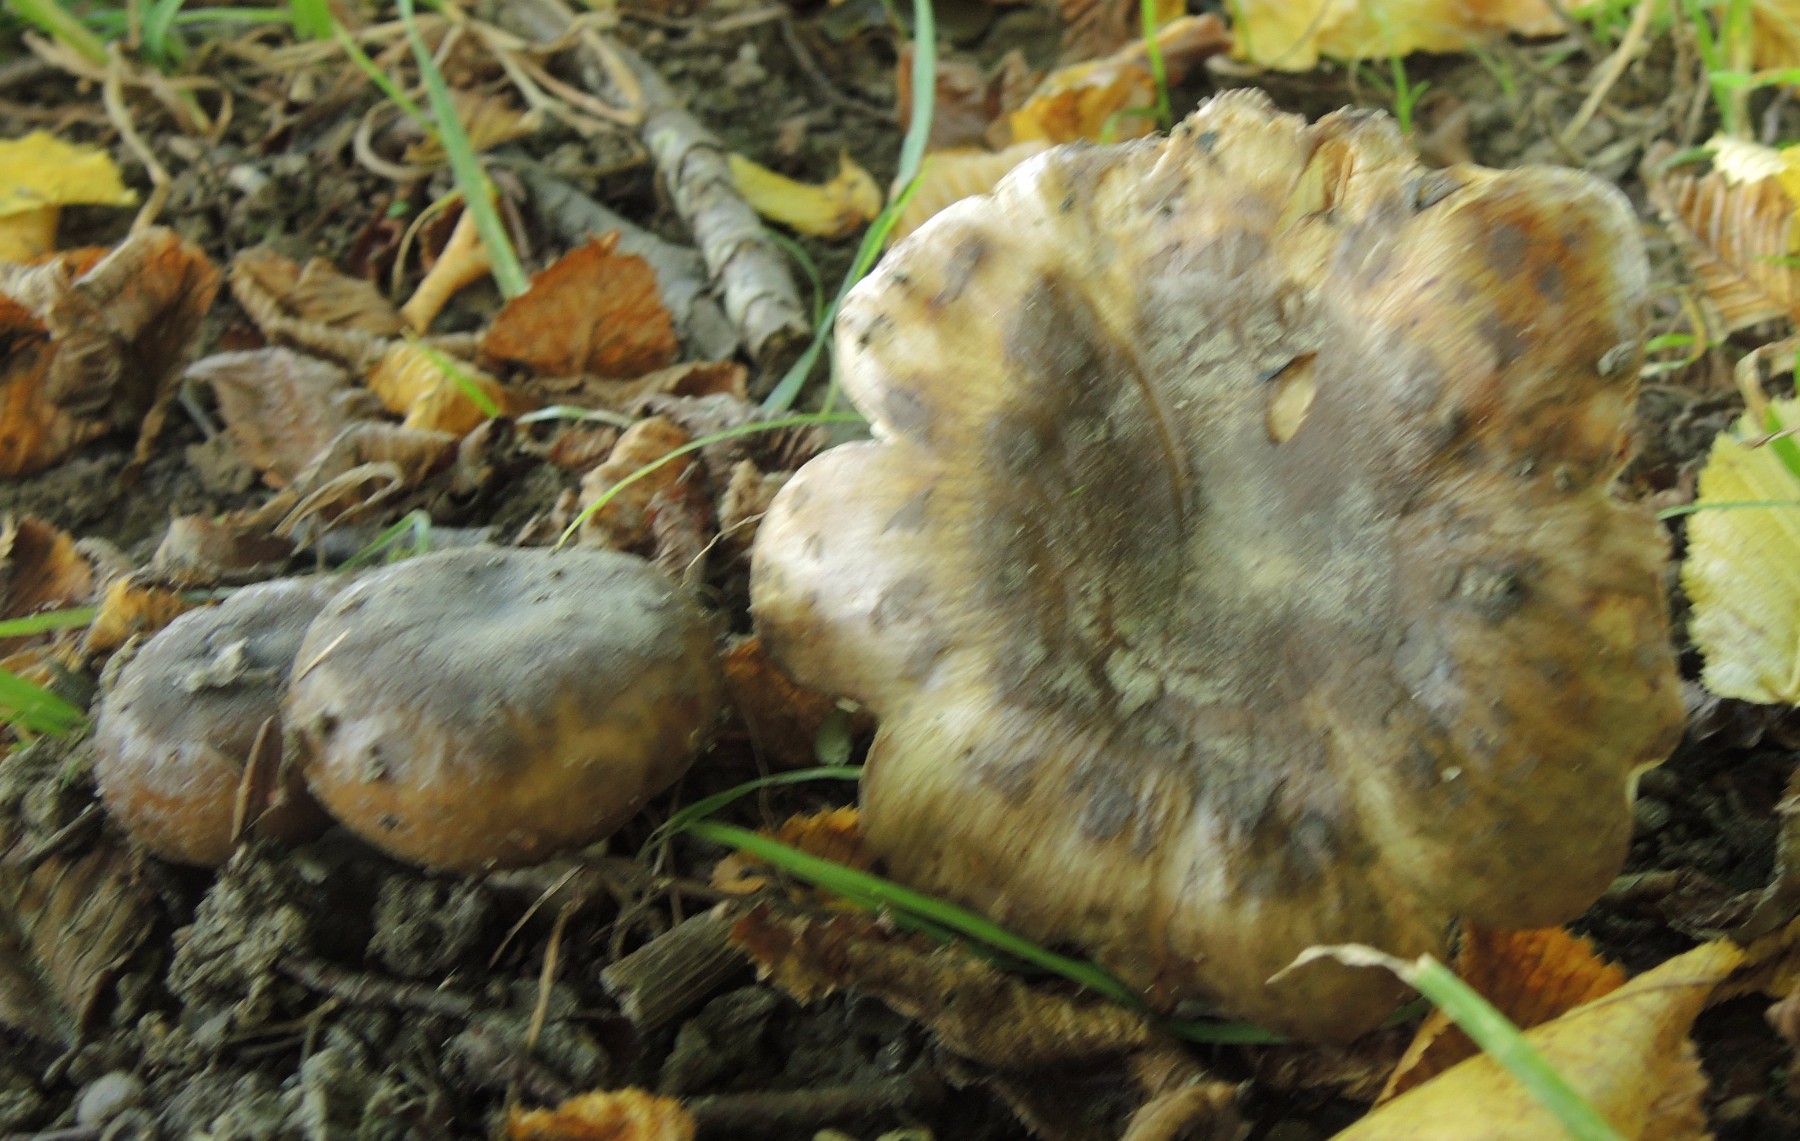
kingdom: Fungi
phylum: Basidiomycota
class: Agaricomycetes
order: Russulales
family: Russulaceae
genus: Russula
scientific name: Russula sororia
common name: brun kam-skørhat
